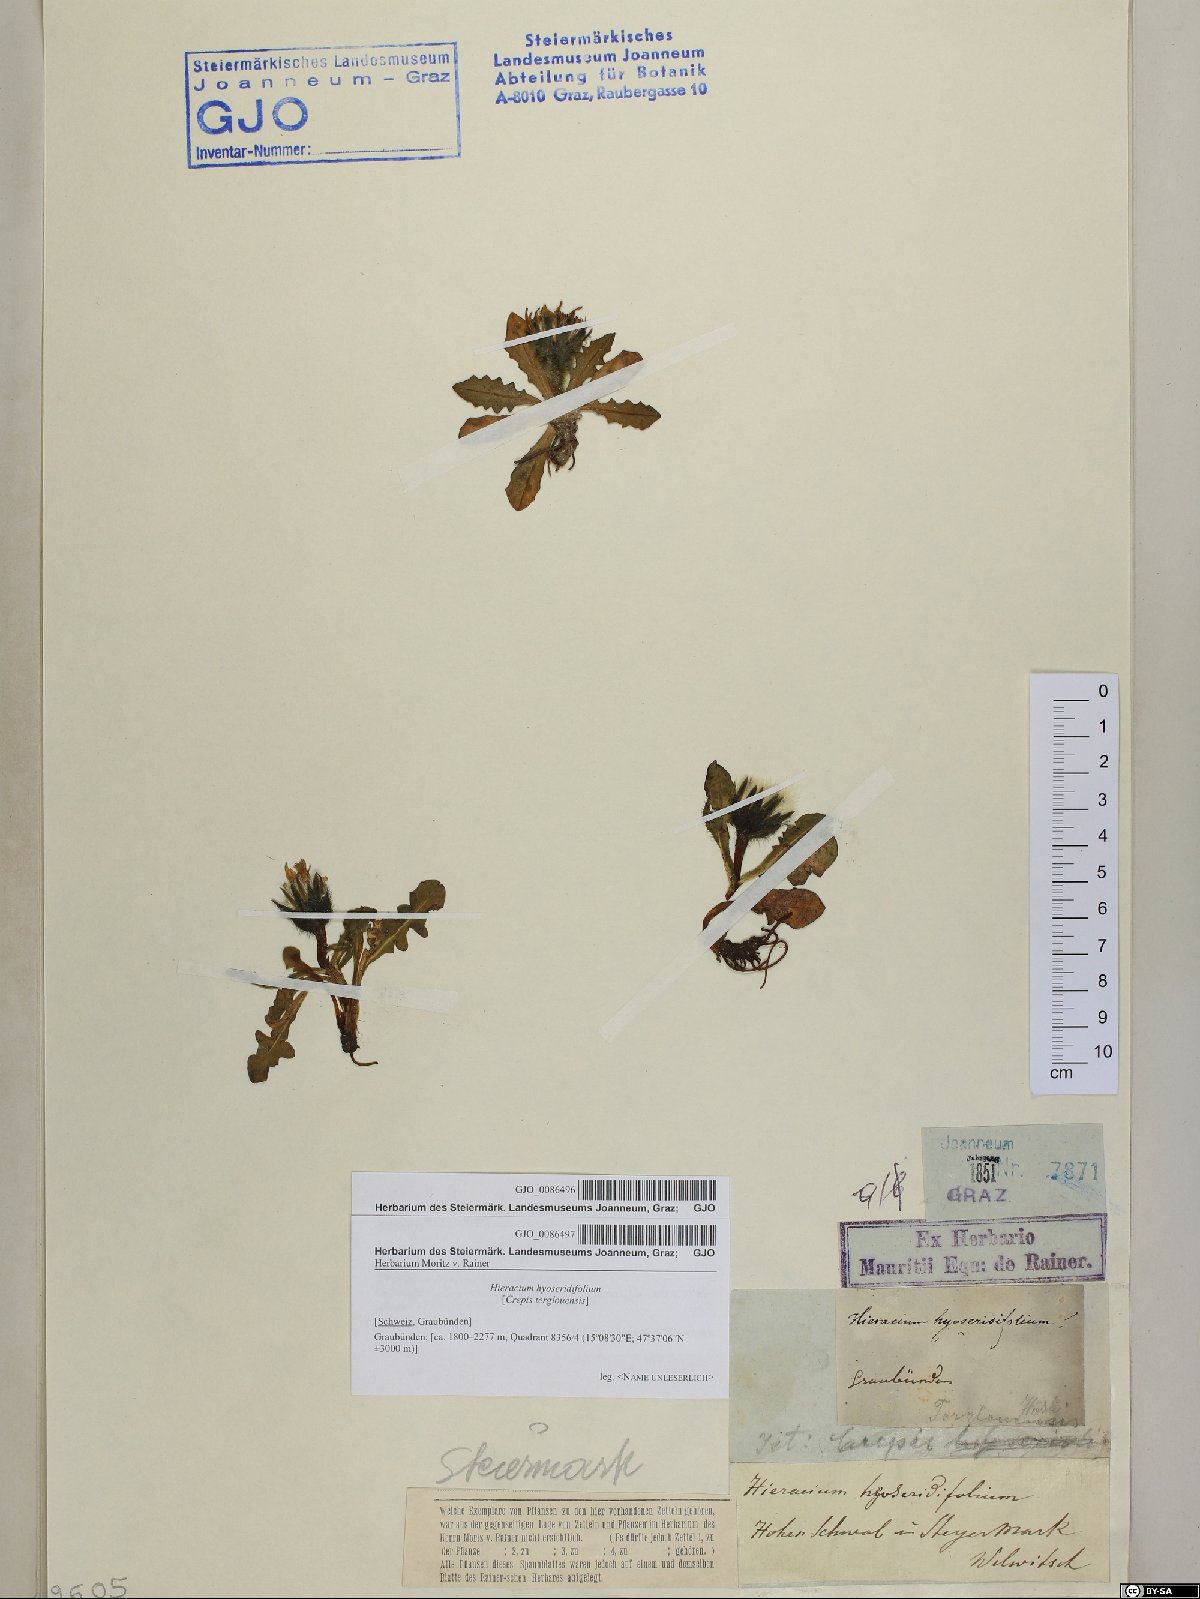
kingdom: Plantae
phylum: Tracheophyta
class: Magnoliopsida
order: Asterales
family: Asteraceae
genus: Crepis
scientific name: Crepis terglouensis
